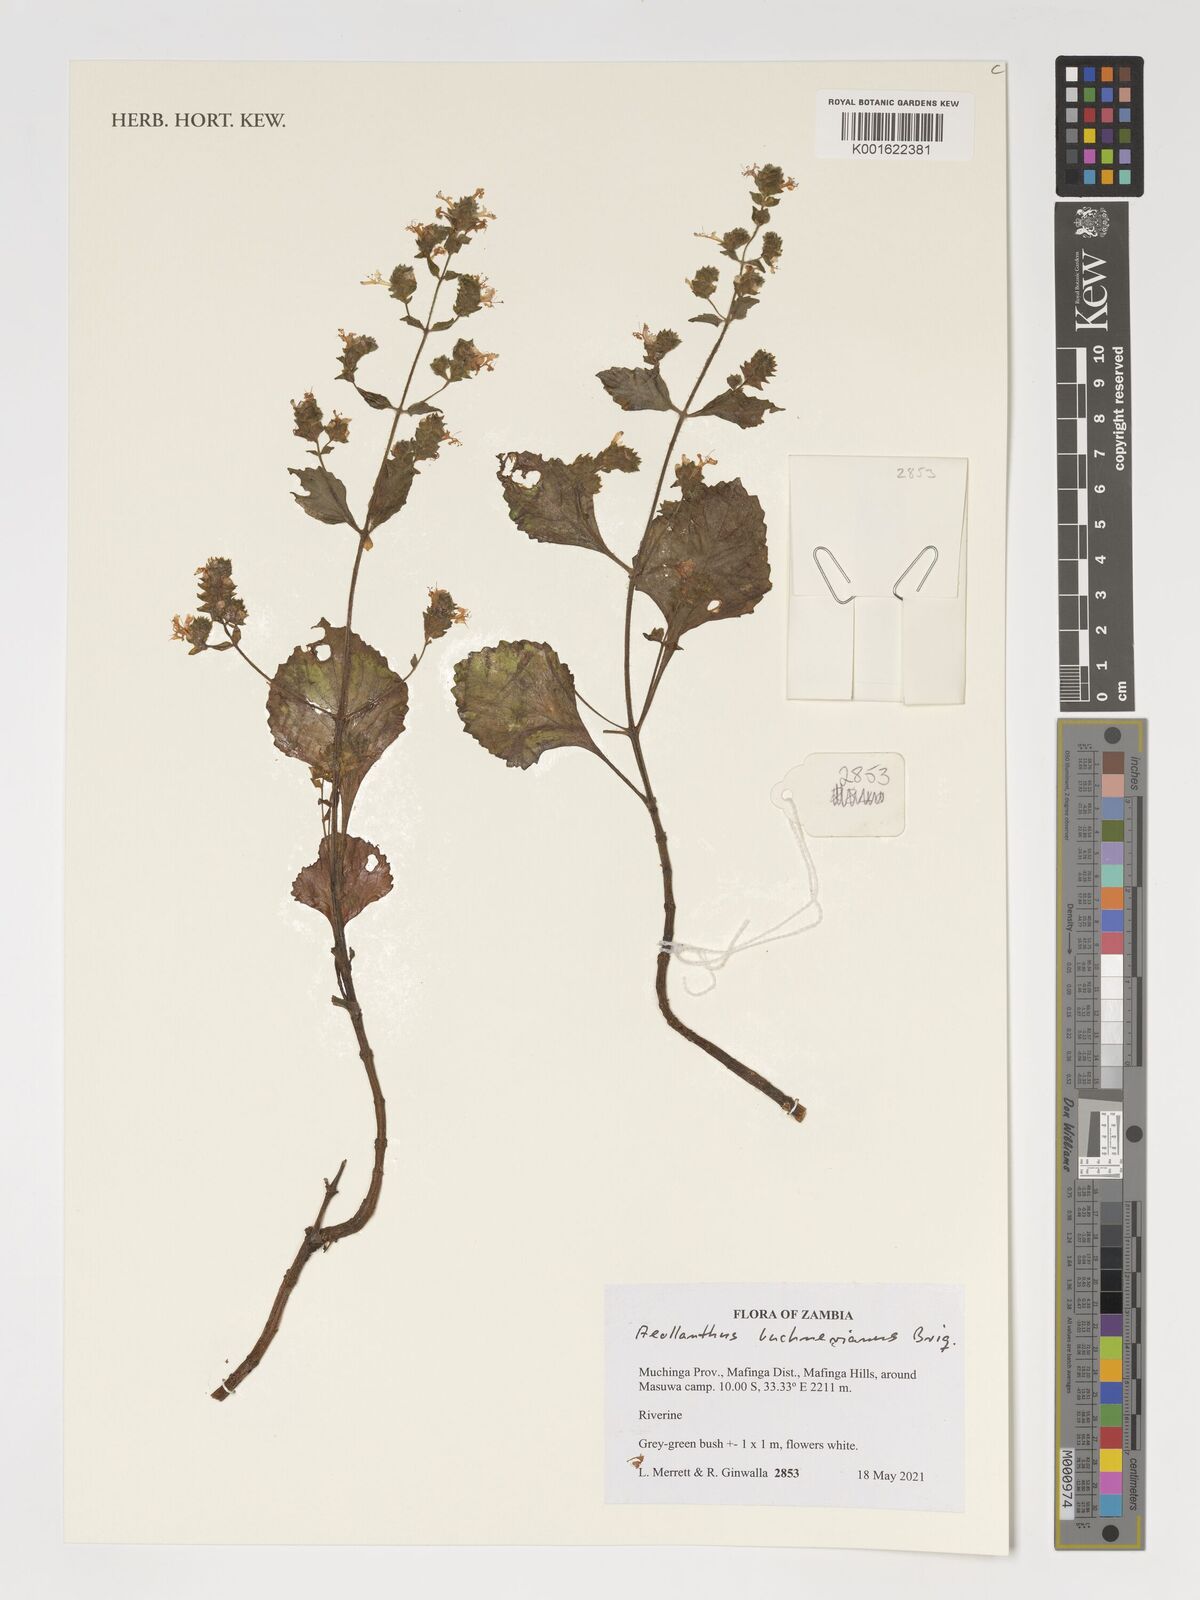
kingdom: Plantae
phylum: Tracheophyta
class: Magnoliopsida
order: Lamiales
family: Lamiaceae
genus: Aeollanthus
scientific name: Aeollanthus buchnerianus
